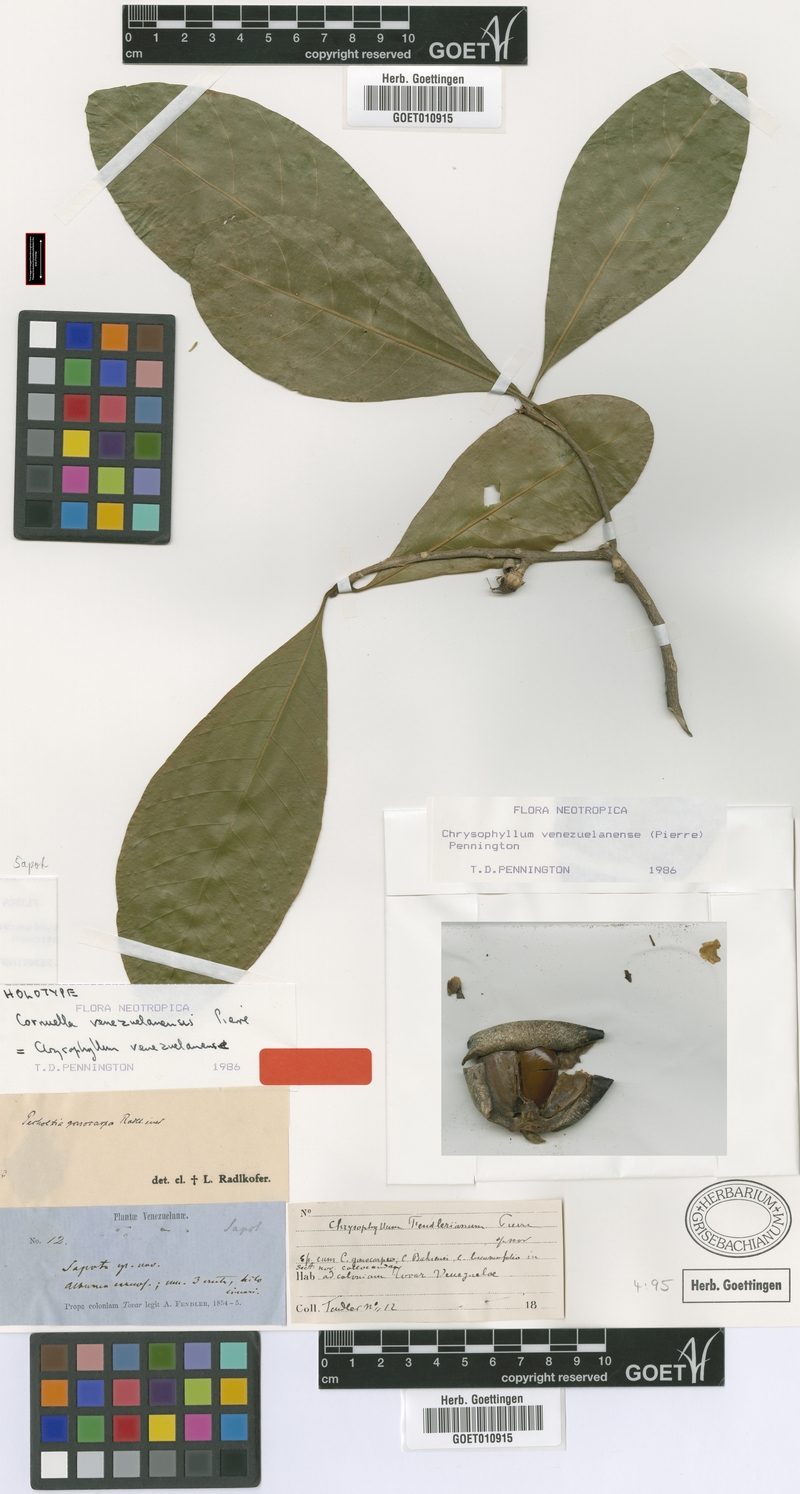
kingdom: Plantae
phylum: Tracheophyta
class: Magnoliopsida
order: Ericales
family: Sapotaceae
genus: Chrysophyllum
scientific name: Chrysophyllum venezuelanense
